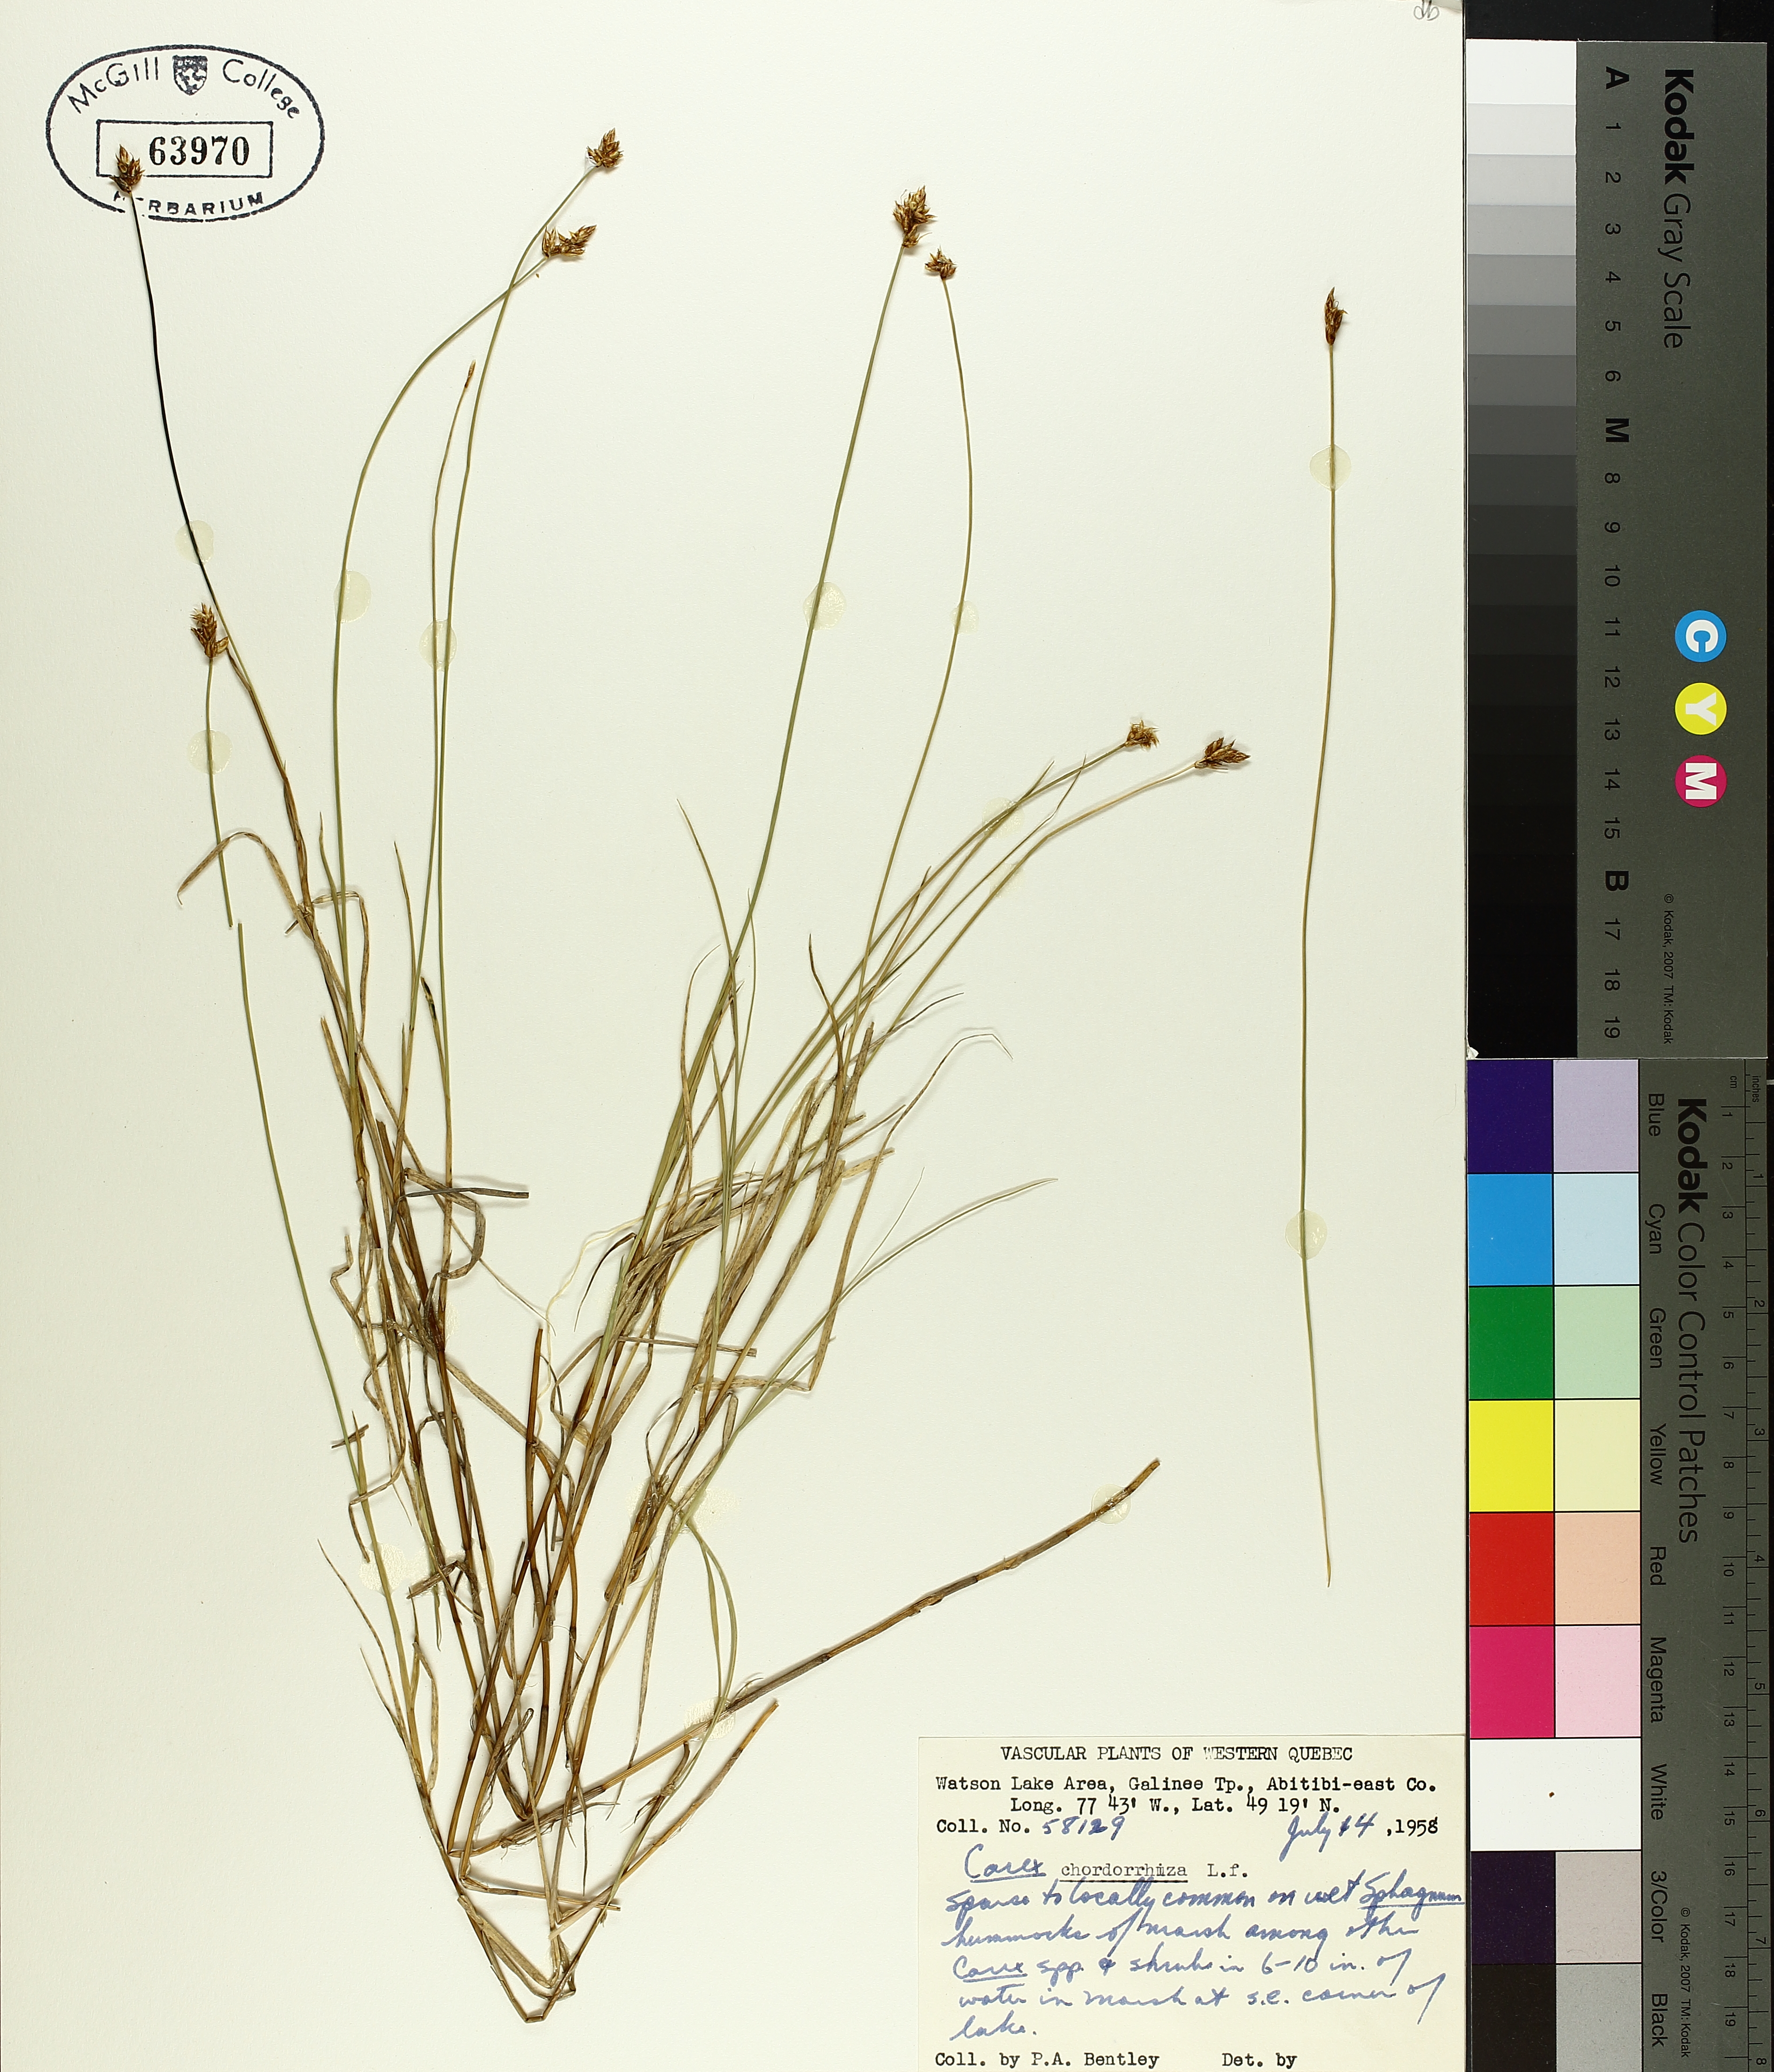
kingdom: Plantae
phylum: Tracheophyta
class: Liliopsida
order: Poales
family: Cyperaceae
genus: Carex
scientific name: Carex
